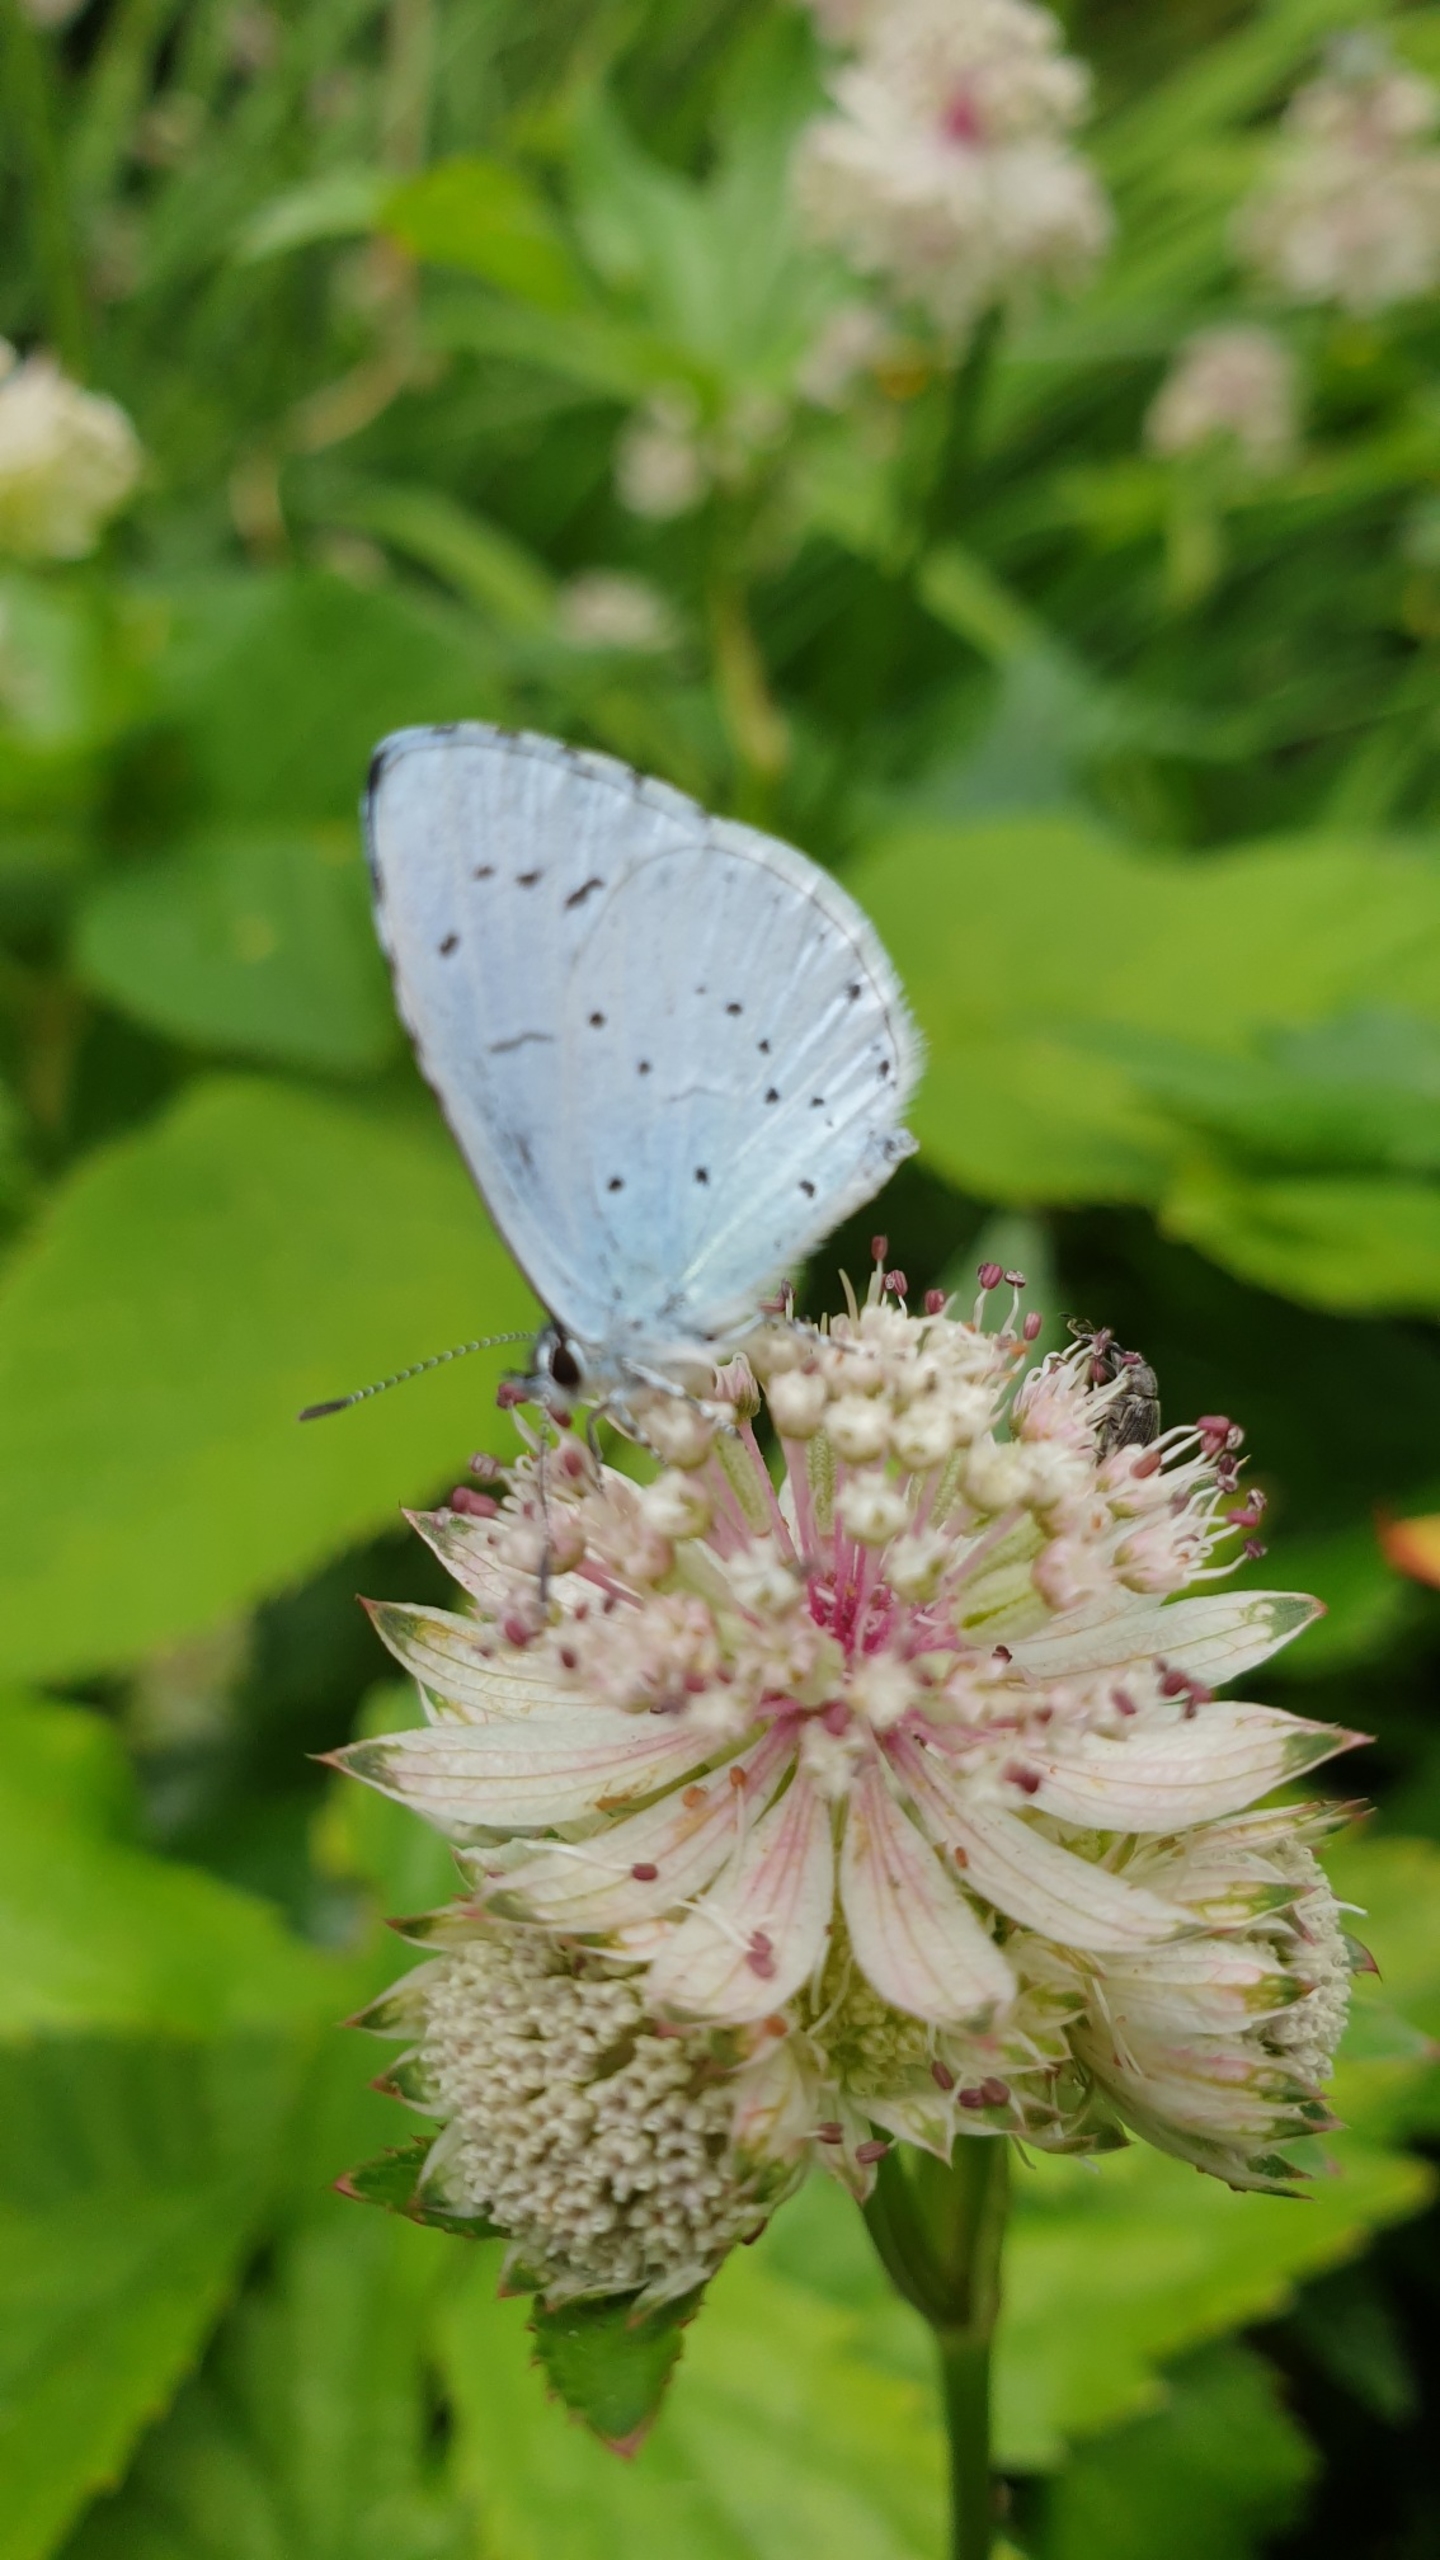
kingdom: Animalia
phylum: Arthropoda
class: Insecta
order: Lepidoptera
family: Lycaenidae
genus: Celastrina
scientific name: Celastrina argiolus
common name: Skovblåfugl
